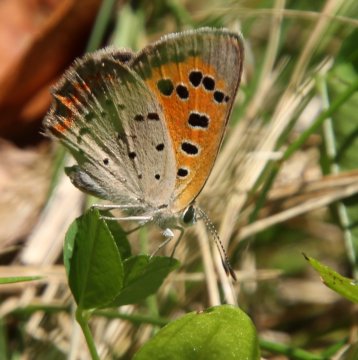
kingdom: Animalia
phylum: Arthropoda
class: Insecta
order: Lepidoptera
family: Lycaenidae
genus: Lycaena
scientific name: Lycaena phlaeas
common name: American Copper
